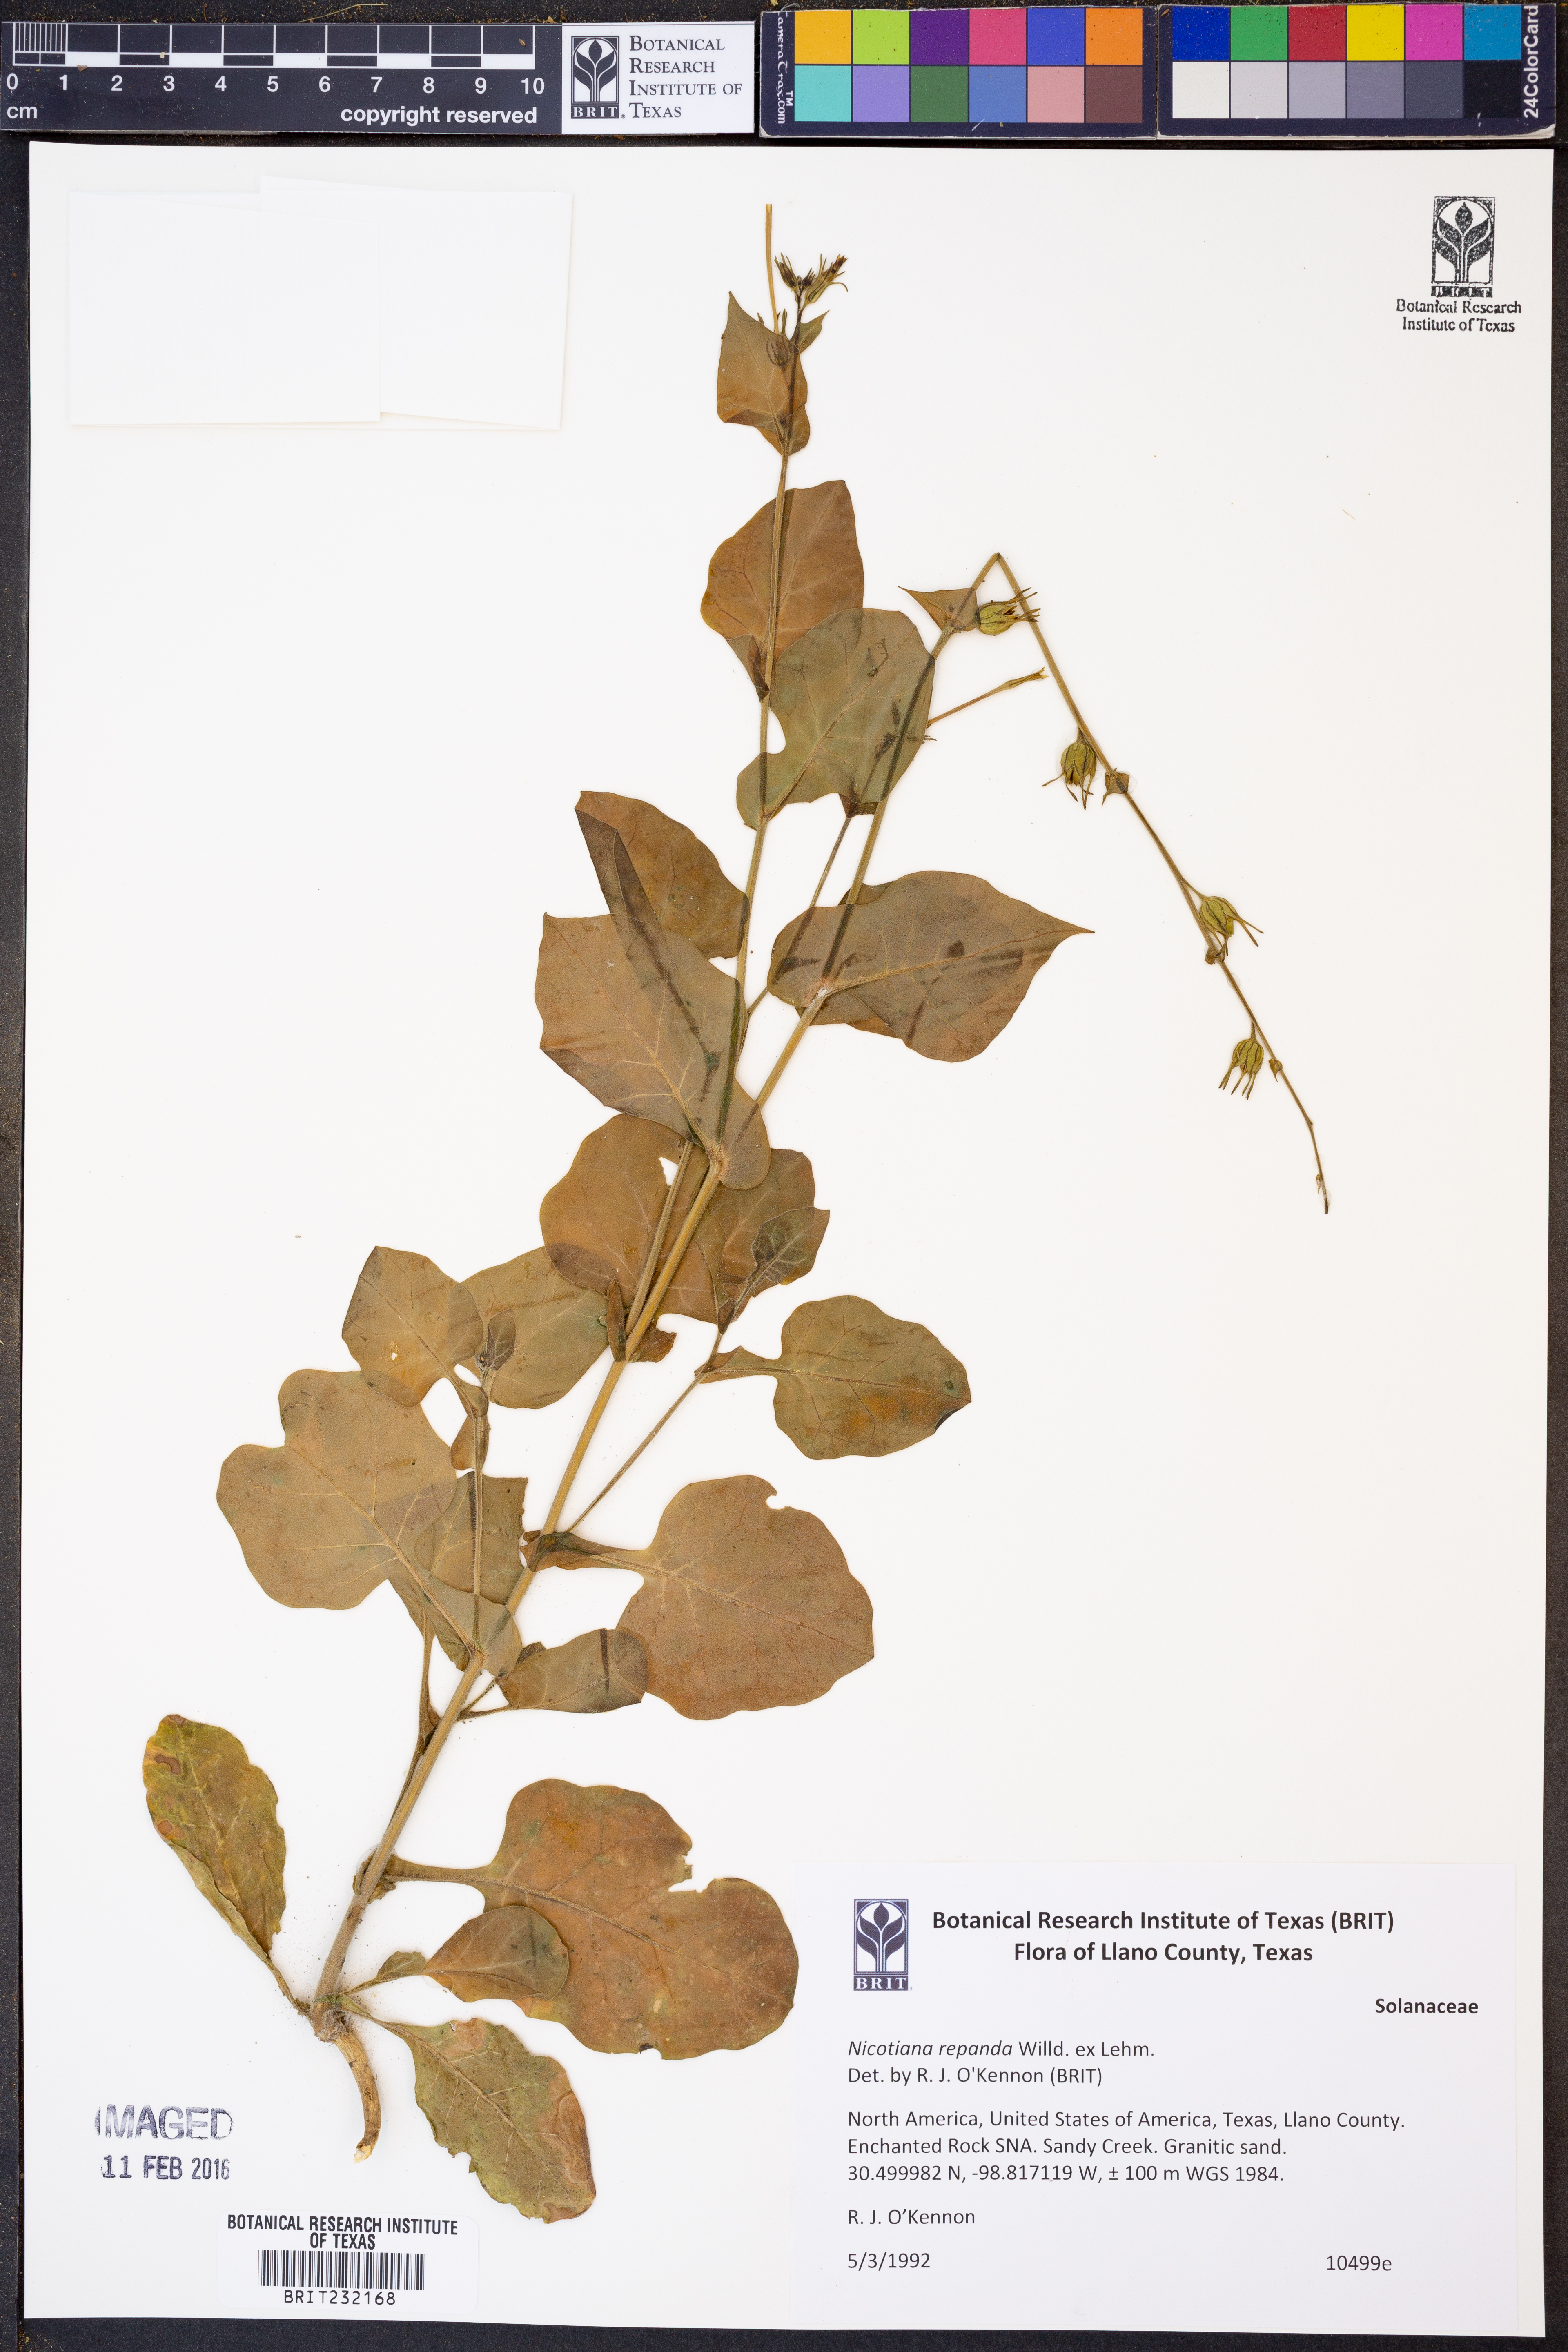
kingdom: Plantae
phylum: Tracheophyta
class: Magnoliopsida
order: Solanales
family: Solanaceae
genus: Nicotiana
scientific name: Nicotiana repanda
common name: Fiddle-leaf tobacco
